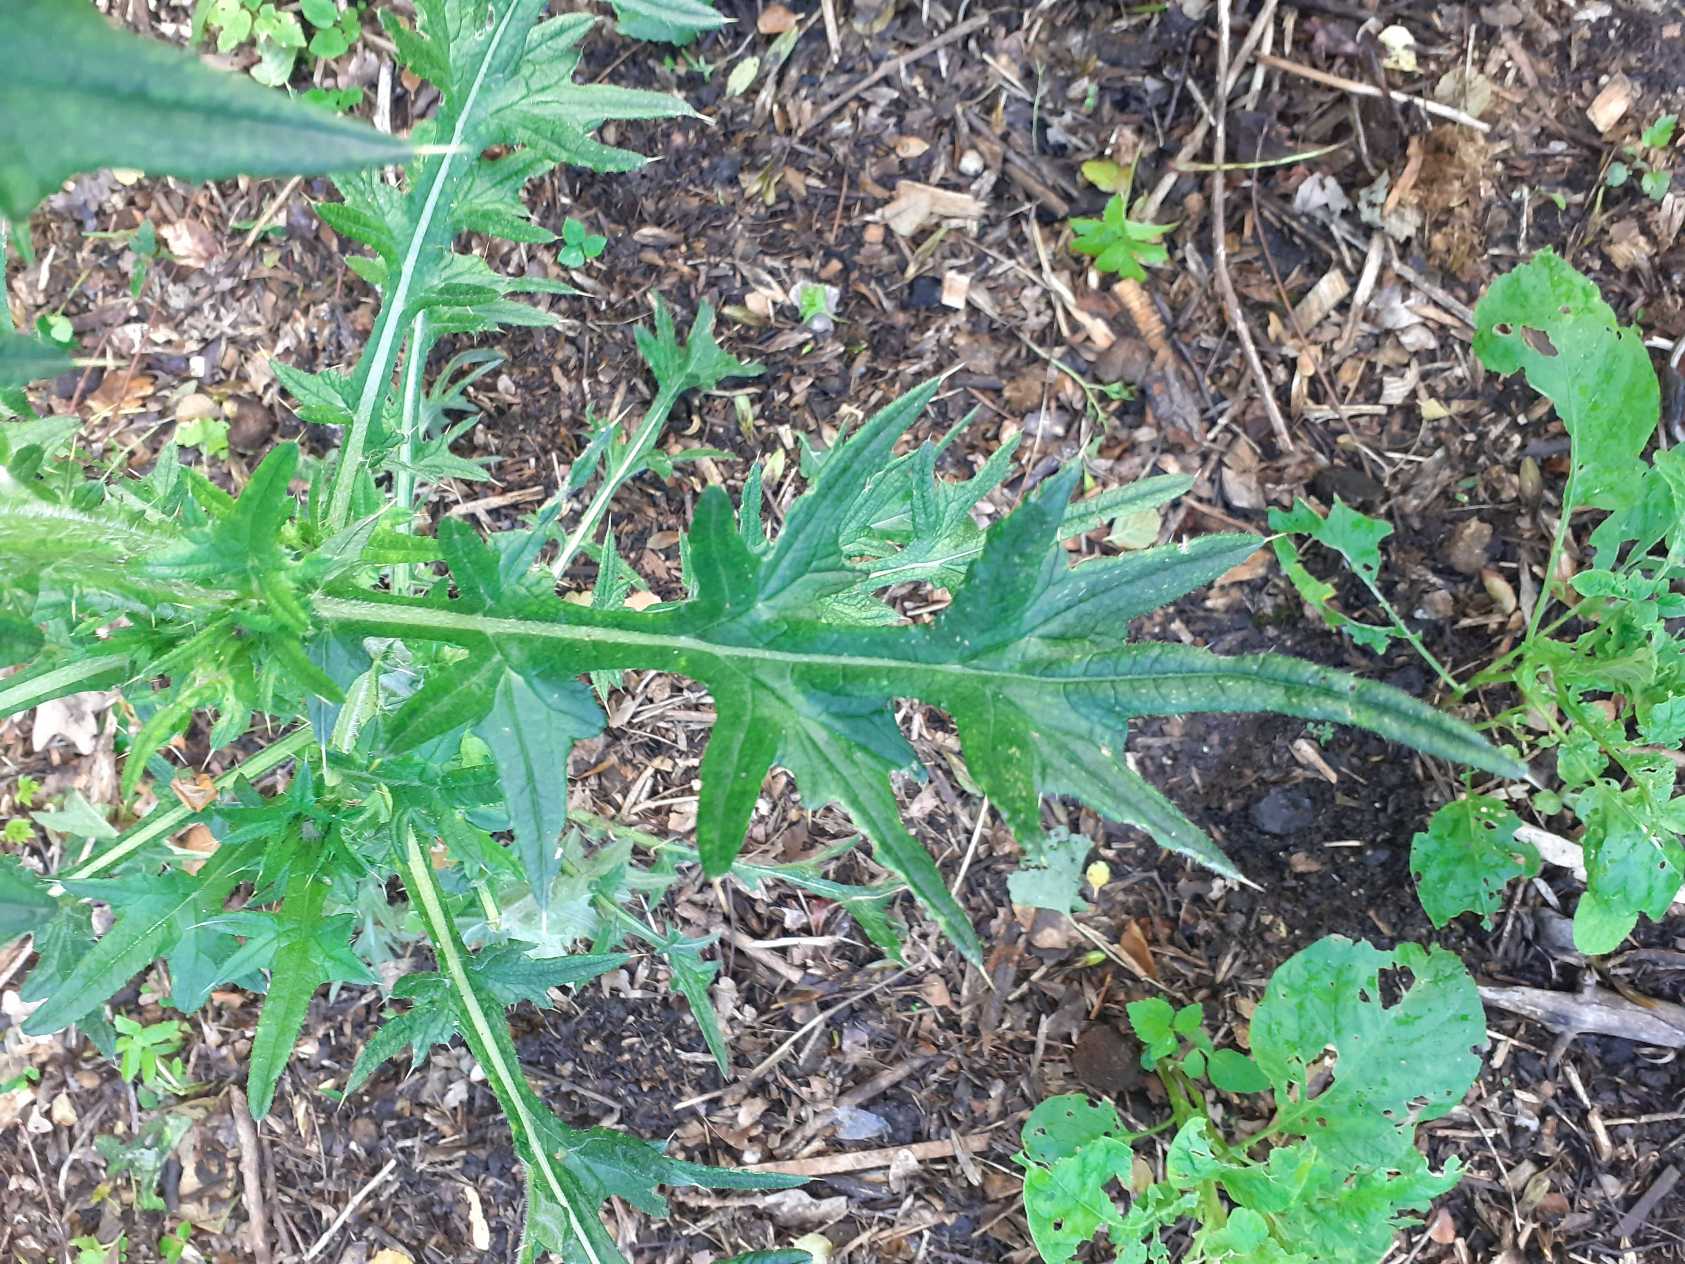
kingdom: Plantae
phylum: Tracheophyta
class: Magnoliopsida
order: Asterales
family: Asteraceae
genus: Cirsium
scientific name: Cirsium vulgare
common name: Horse-tidsel
